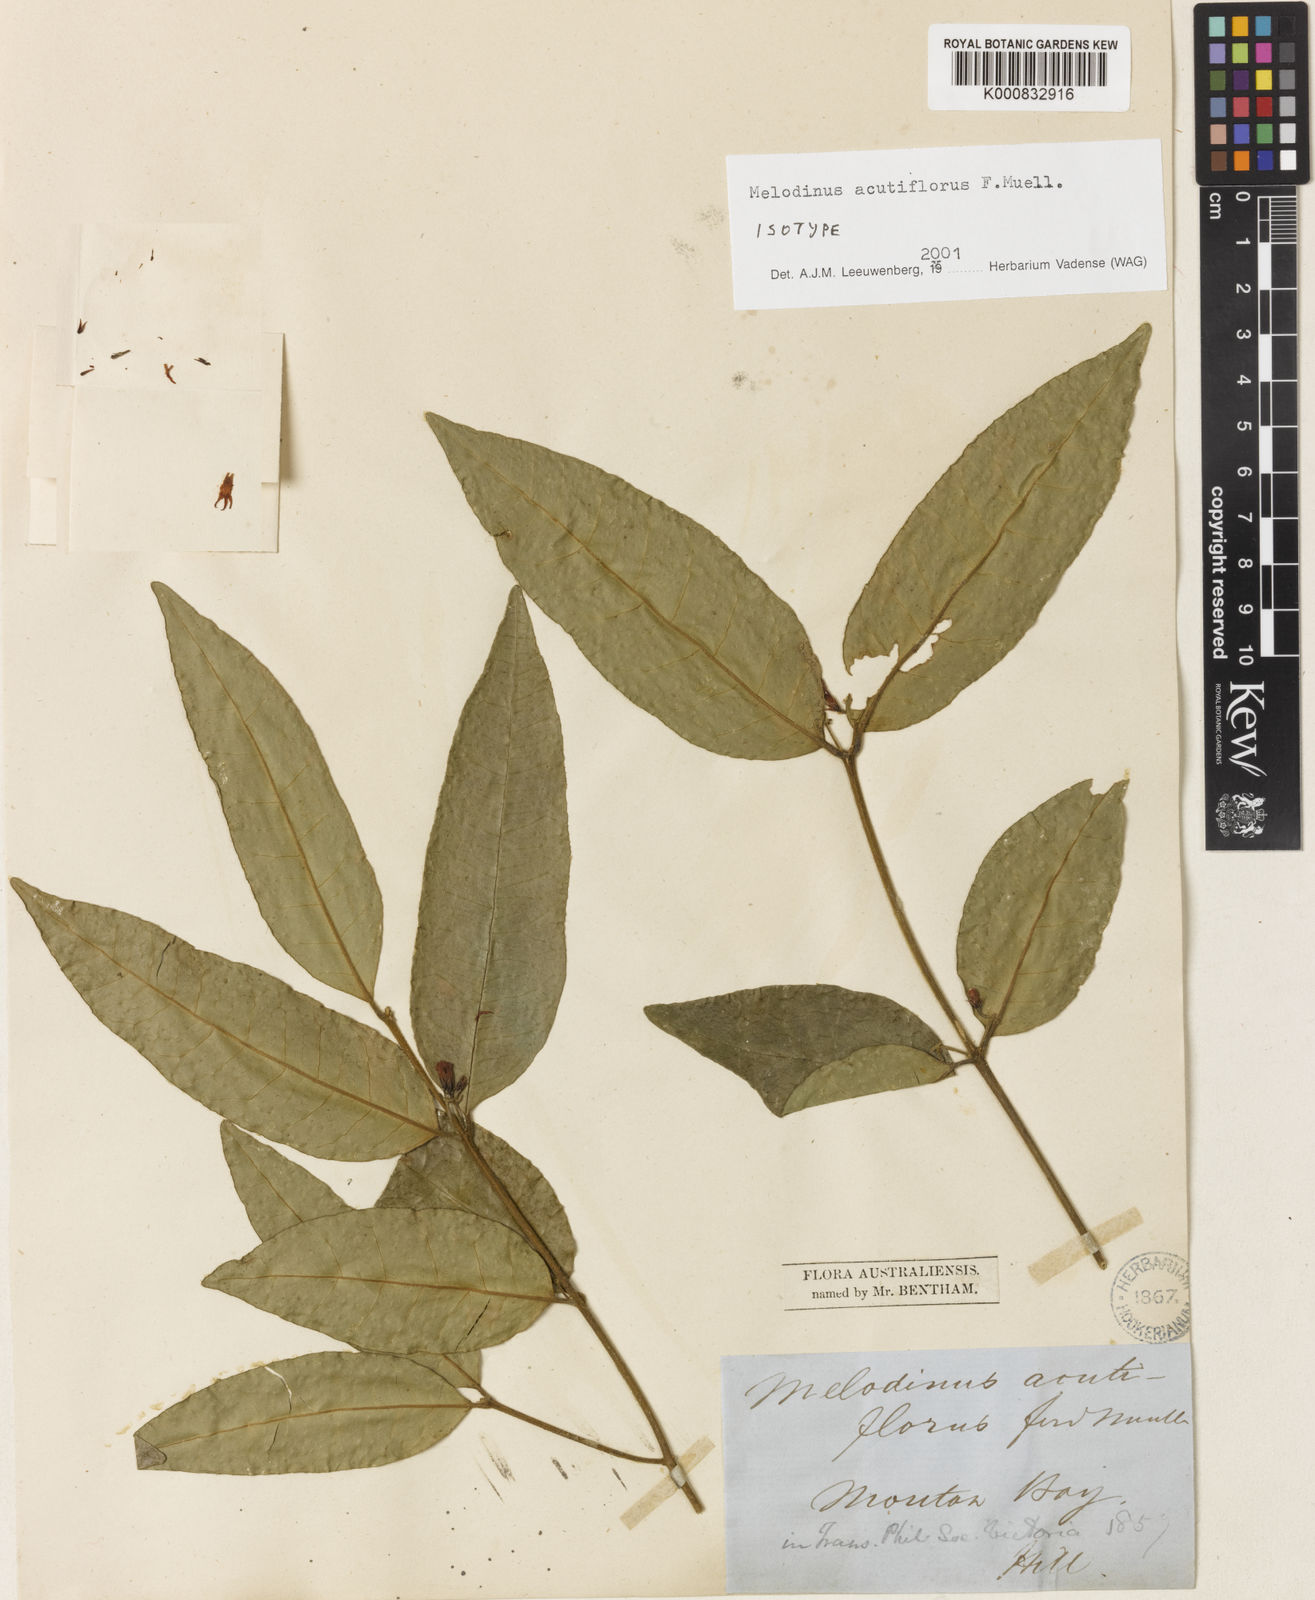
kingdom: Plantae
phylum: Tracheophyta
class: Magnoliopsida
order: Gentianales
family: Apocynaceae
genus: Melodinus
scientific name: Melodinus acutiflorus
